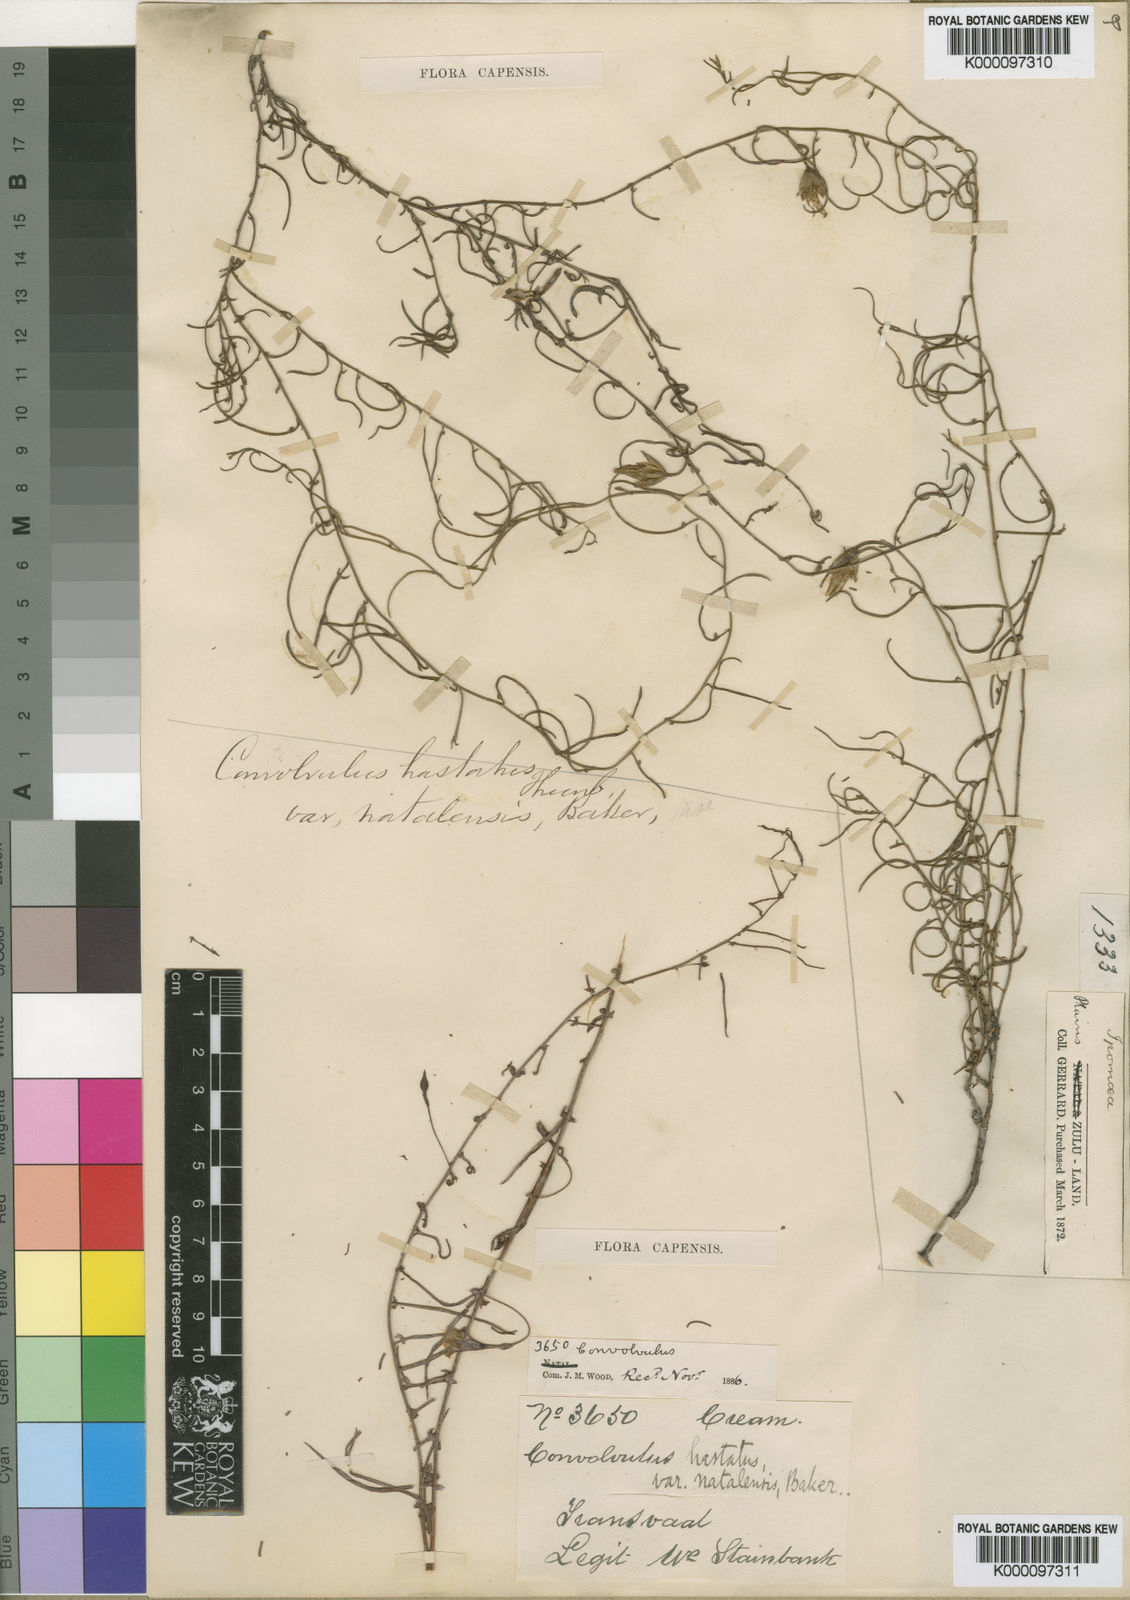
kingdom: Plantae
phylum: Tracheophyta
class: Magnoliopsida
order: Solanales
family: Convolvulaceae
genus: Convolvulus
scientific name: Convolvulus sagittatus
